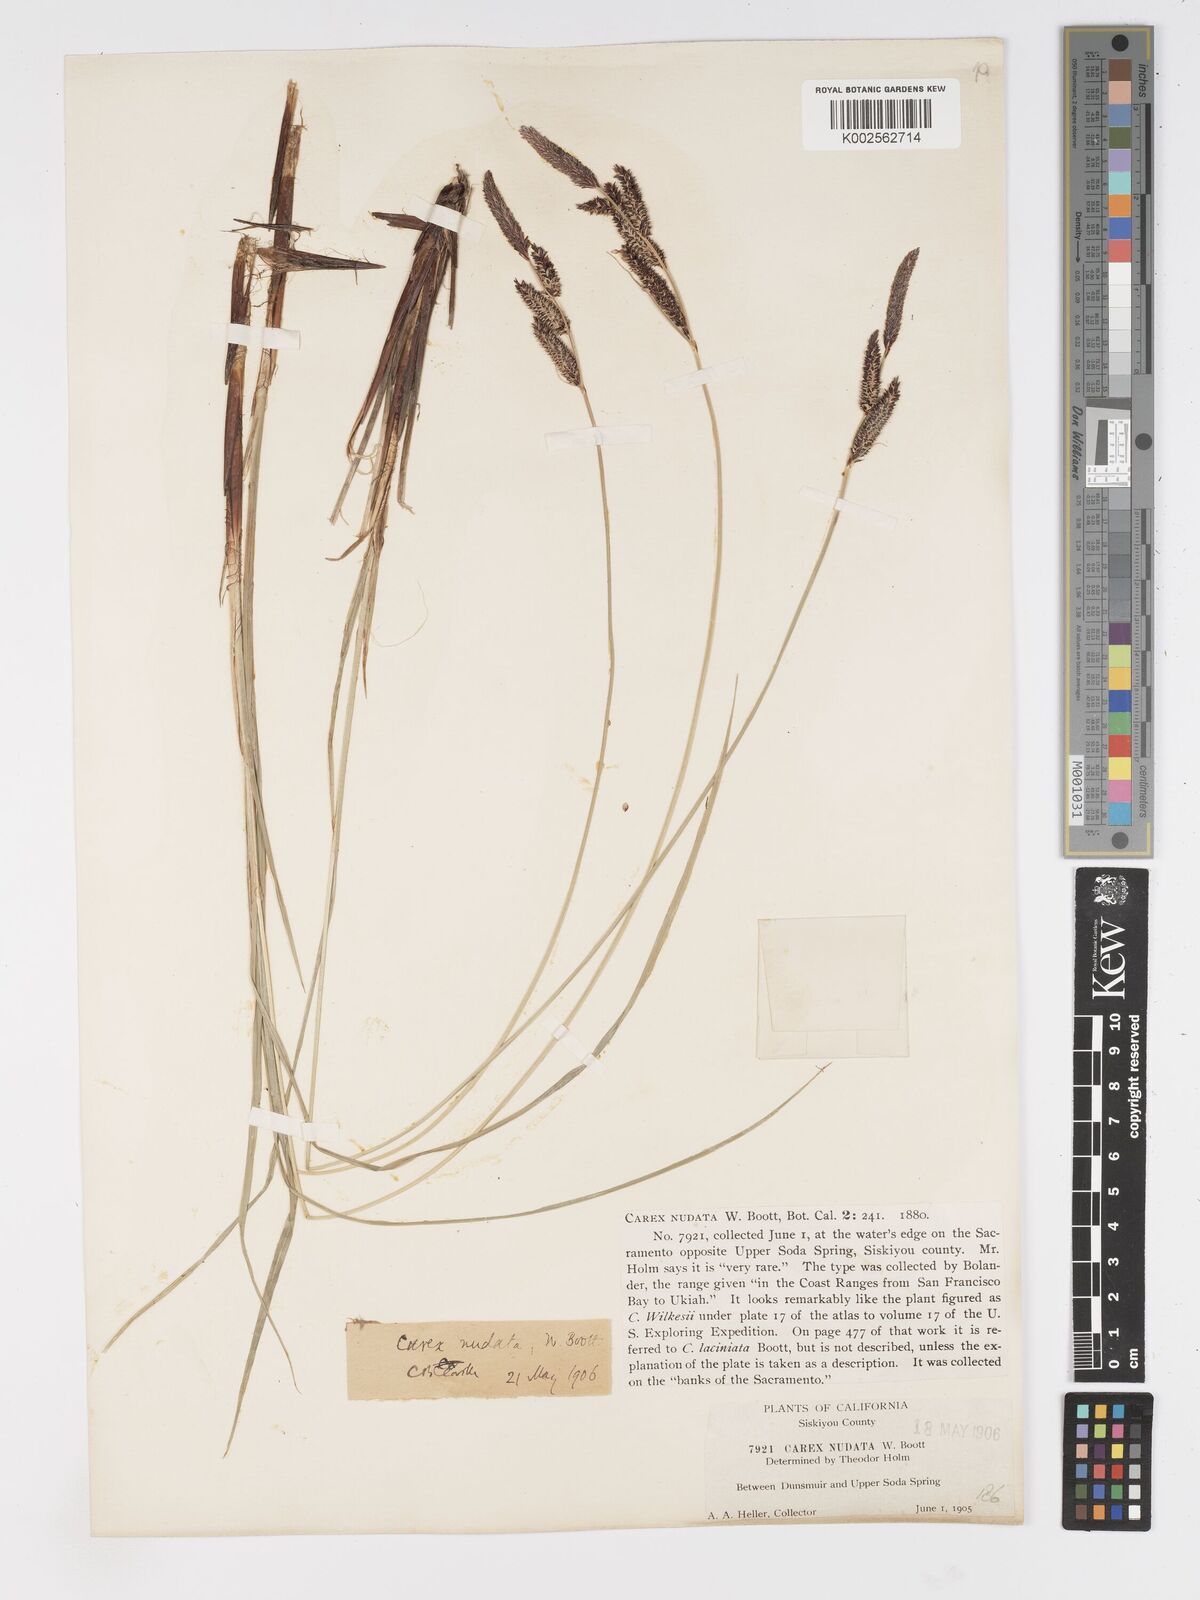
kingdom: Plantae
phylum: Tracheophyta
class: Liliopsida
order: Poales
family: Cyperaceae
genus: Carex
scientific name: Carex nudata
